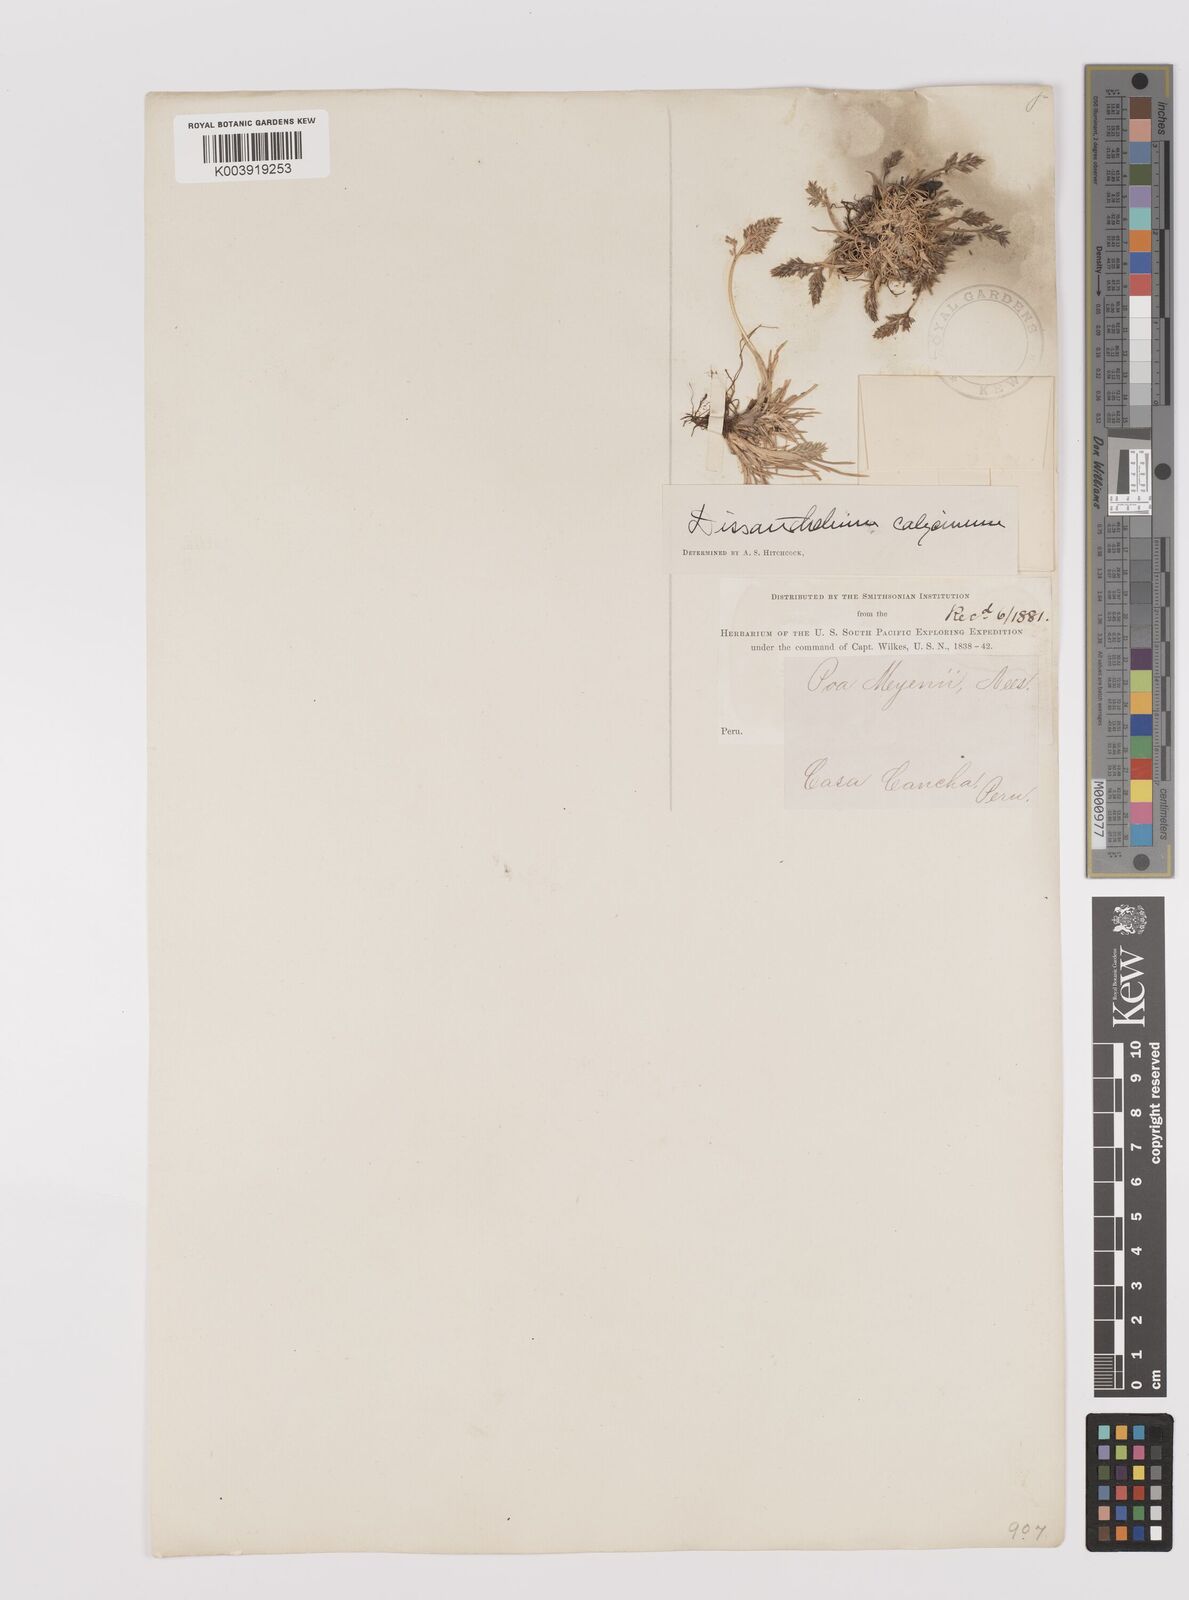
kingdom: Plantae
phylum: Tracheophyta
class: Liliopsida
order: Poales
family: Poaceae
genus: Poa
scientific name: Poa calycina
